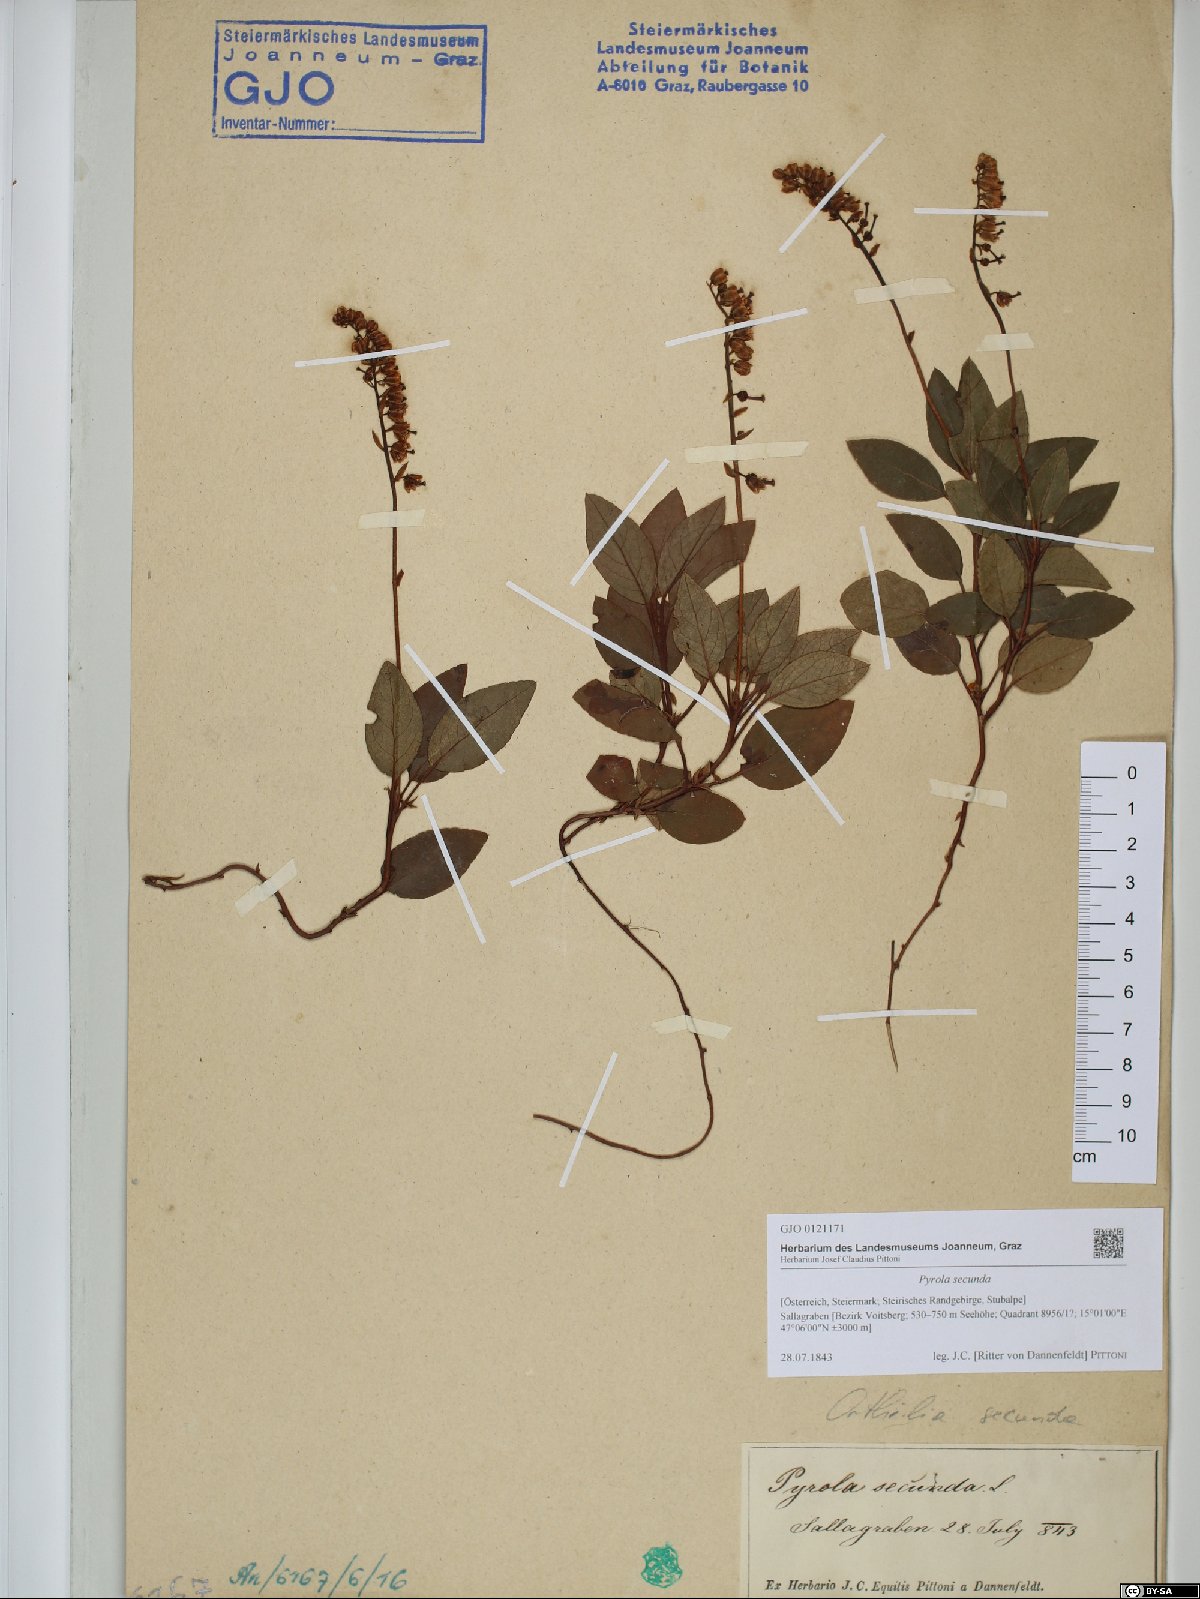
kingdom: Plantae
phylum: Tracheophyta
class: Magnoliopsida
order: Ericales
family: Ericaceae
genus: Orthilia
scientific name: Orthilia secunda
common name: One-sided orthilia
